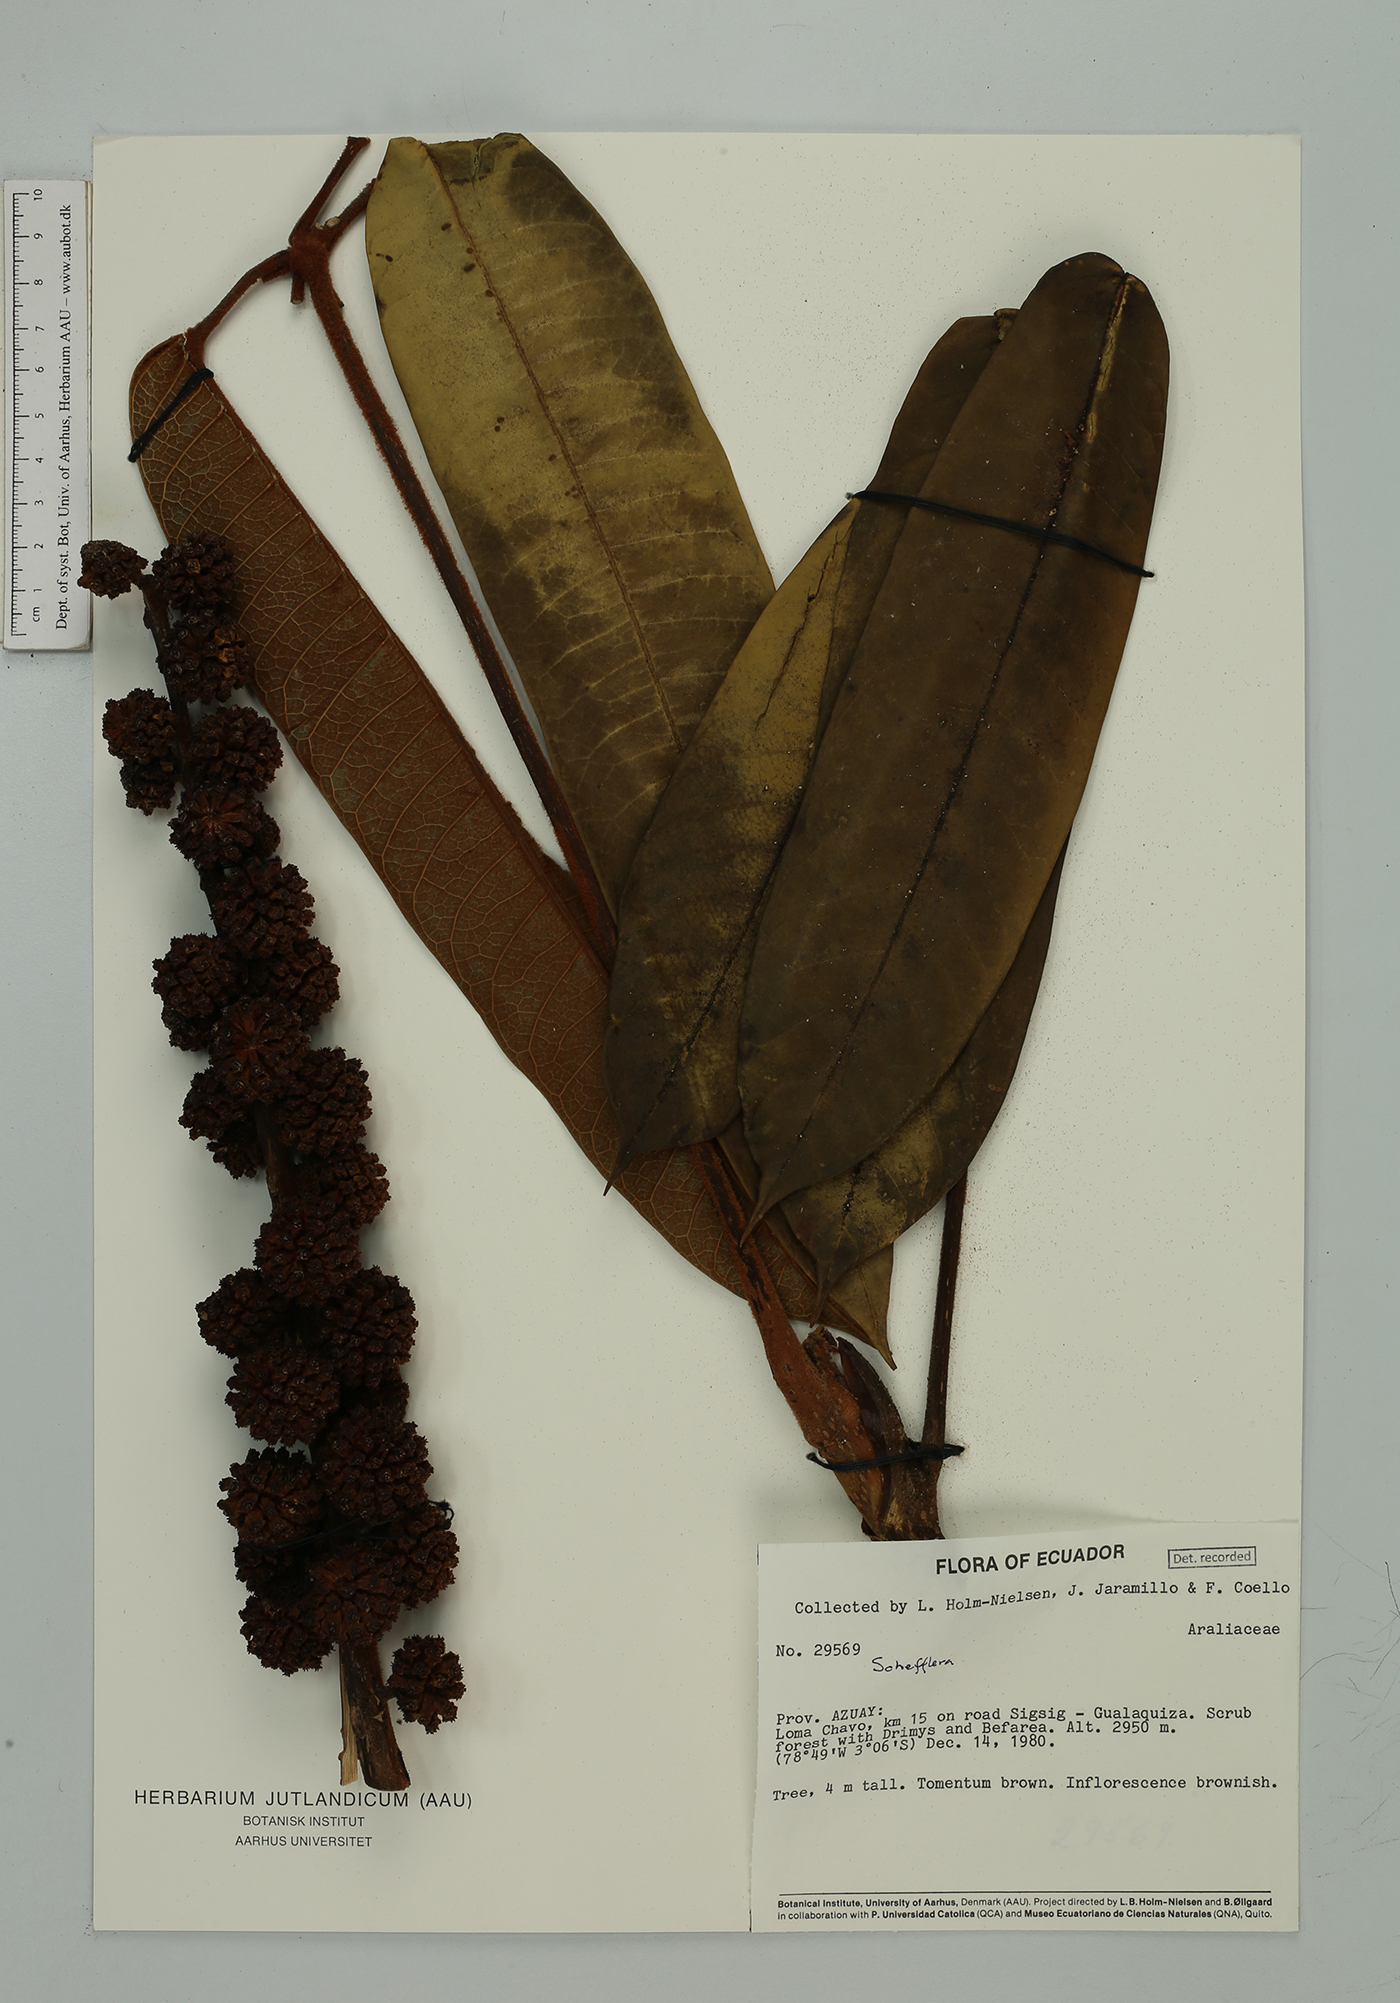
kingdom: Plantae
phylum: Tracheophyta
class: Magnoliopsida
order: Apiales
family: Araliaceae
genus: Sciodaphyllum
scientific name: Sciodaphyllum guanayense
